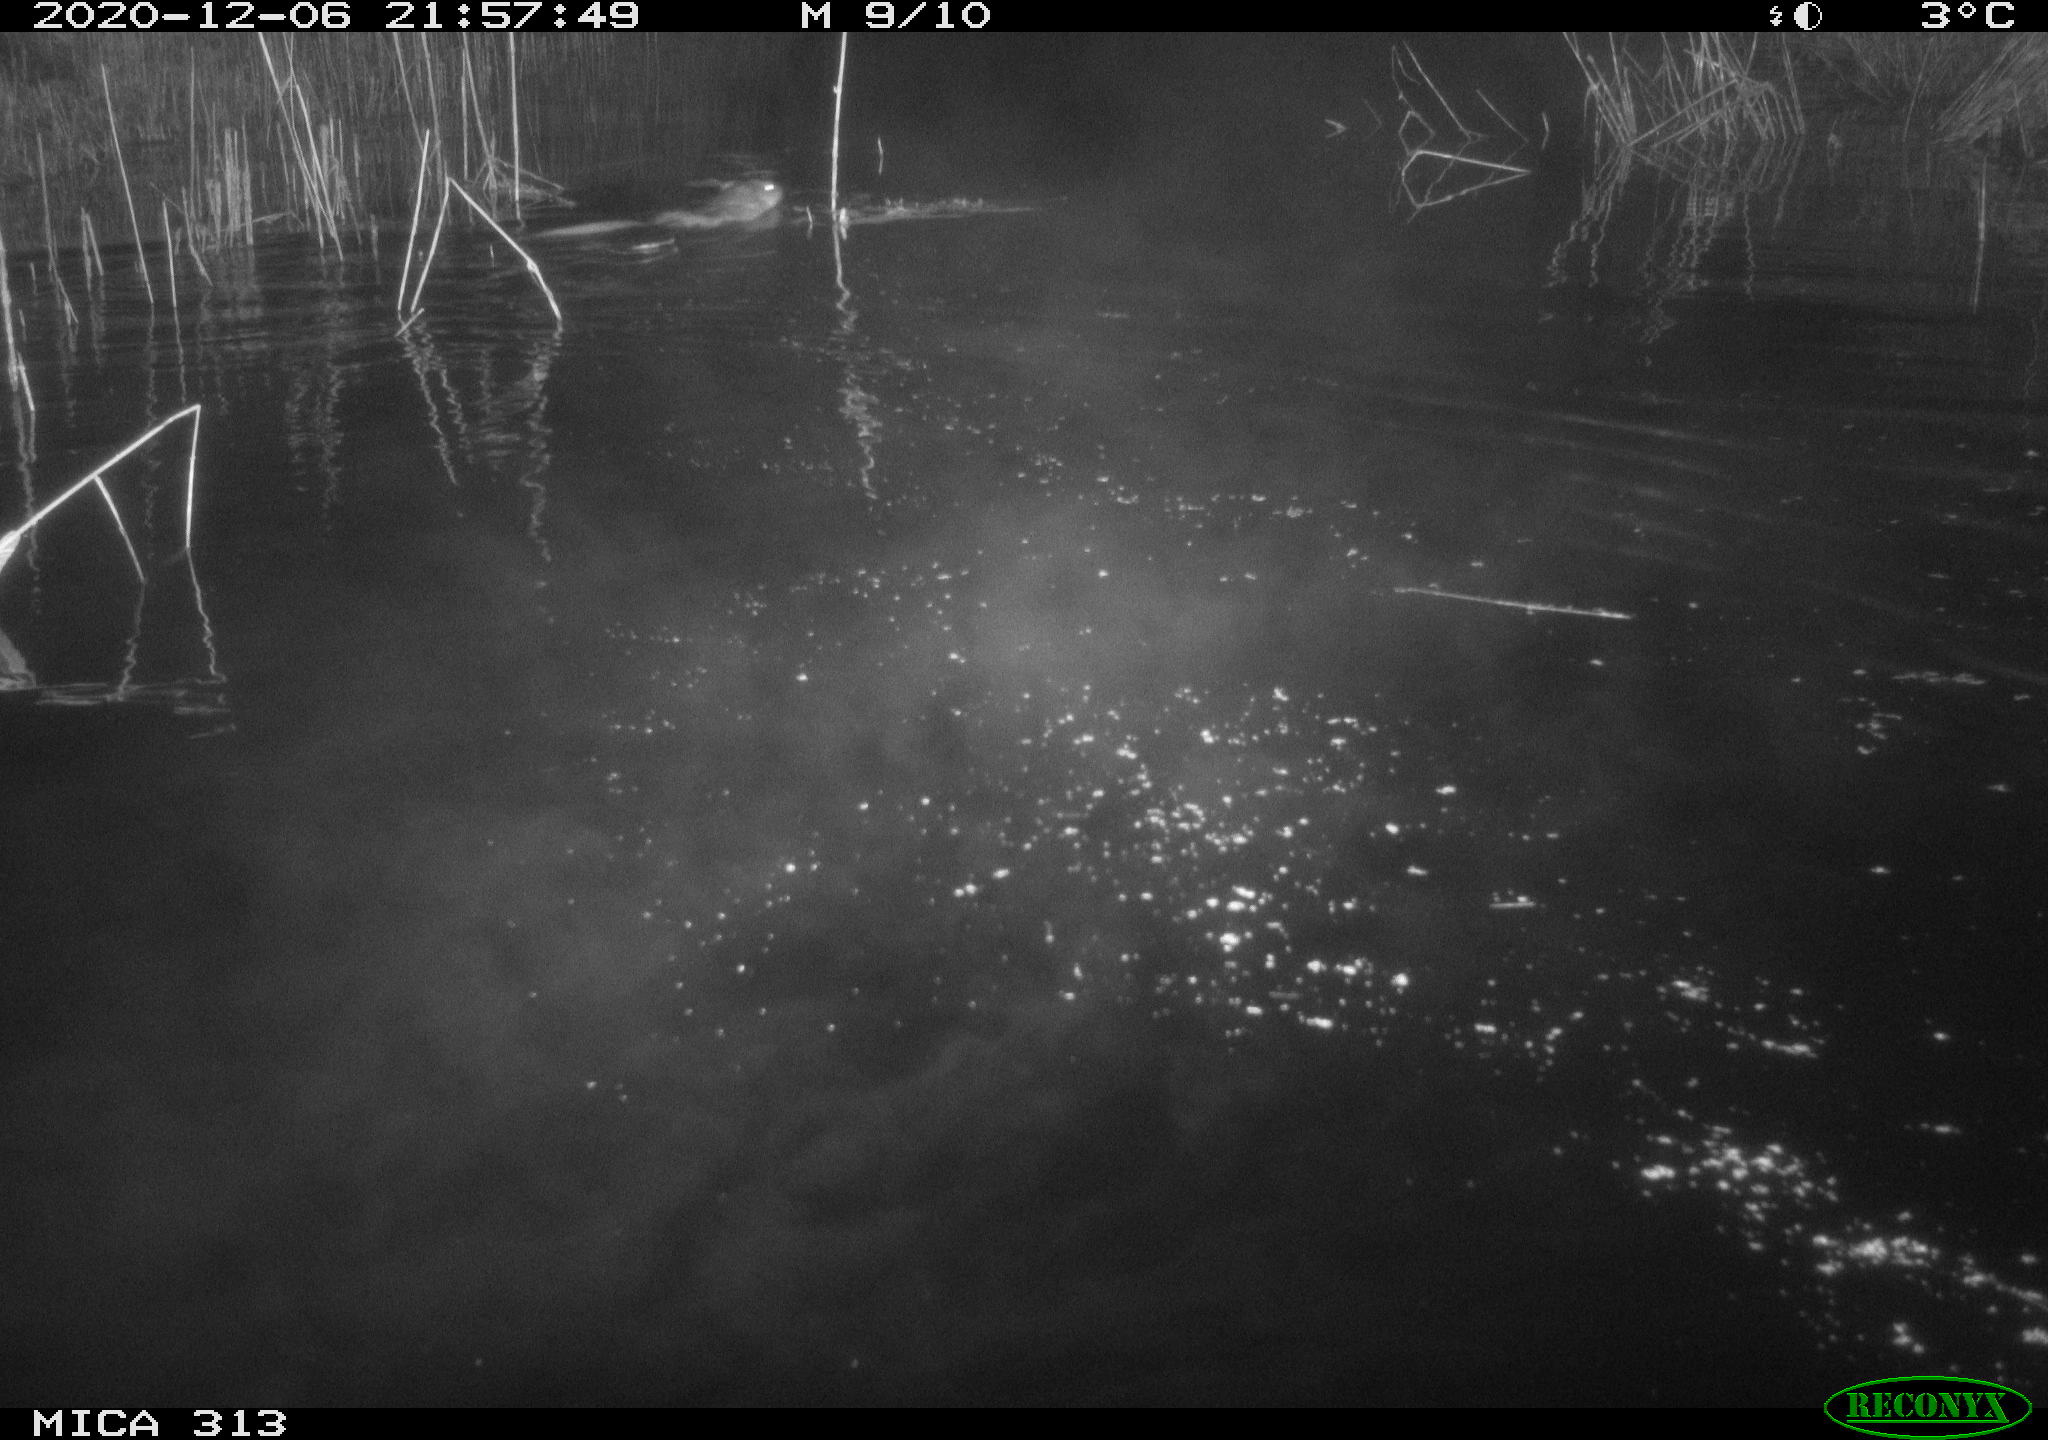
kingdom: Animalia
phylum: Chordata
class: Mammalia
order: Rodentia
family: Cricetidae
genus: Ondatra
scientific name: Ondatra zibethicus
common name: Muskrat
